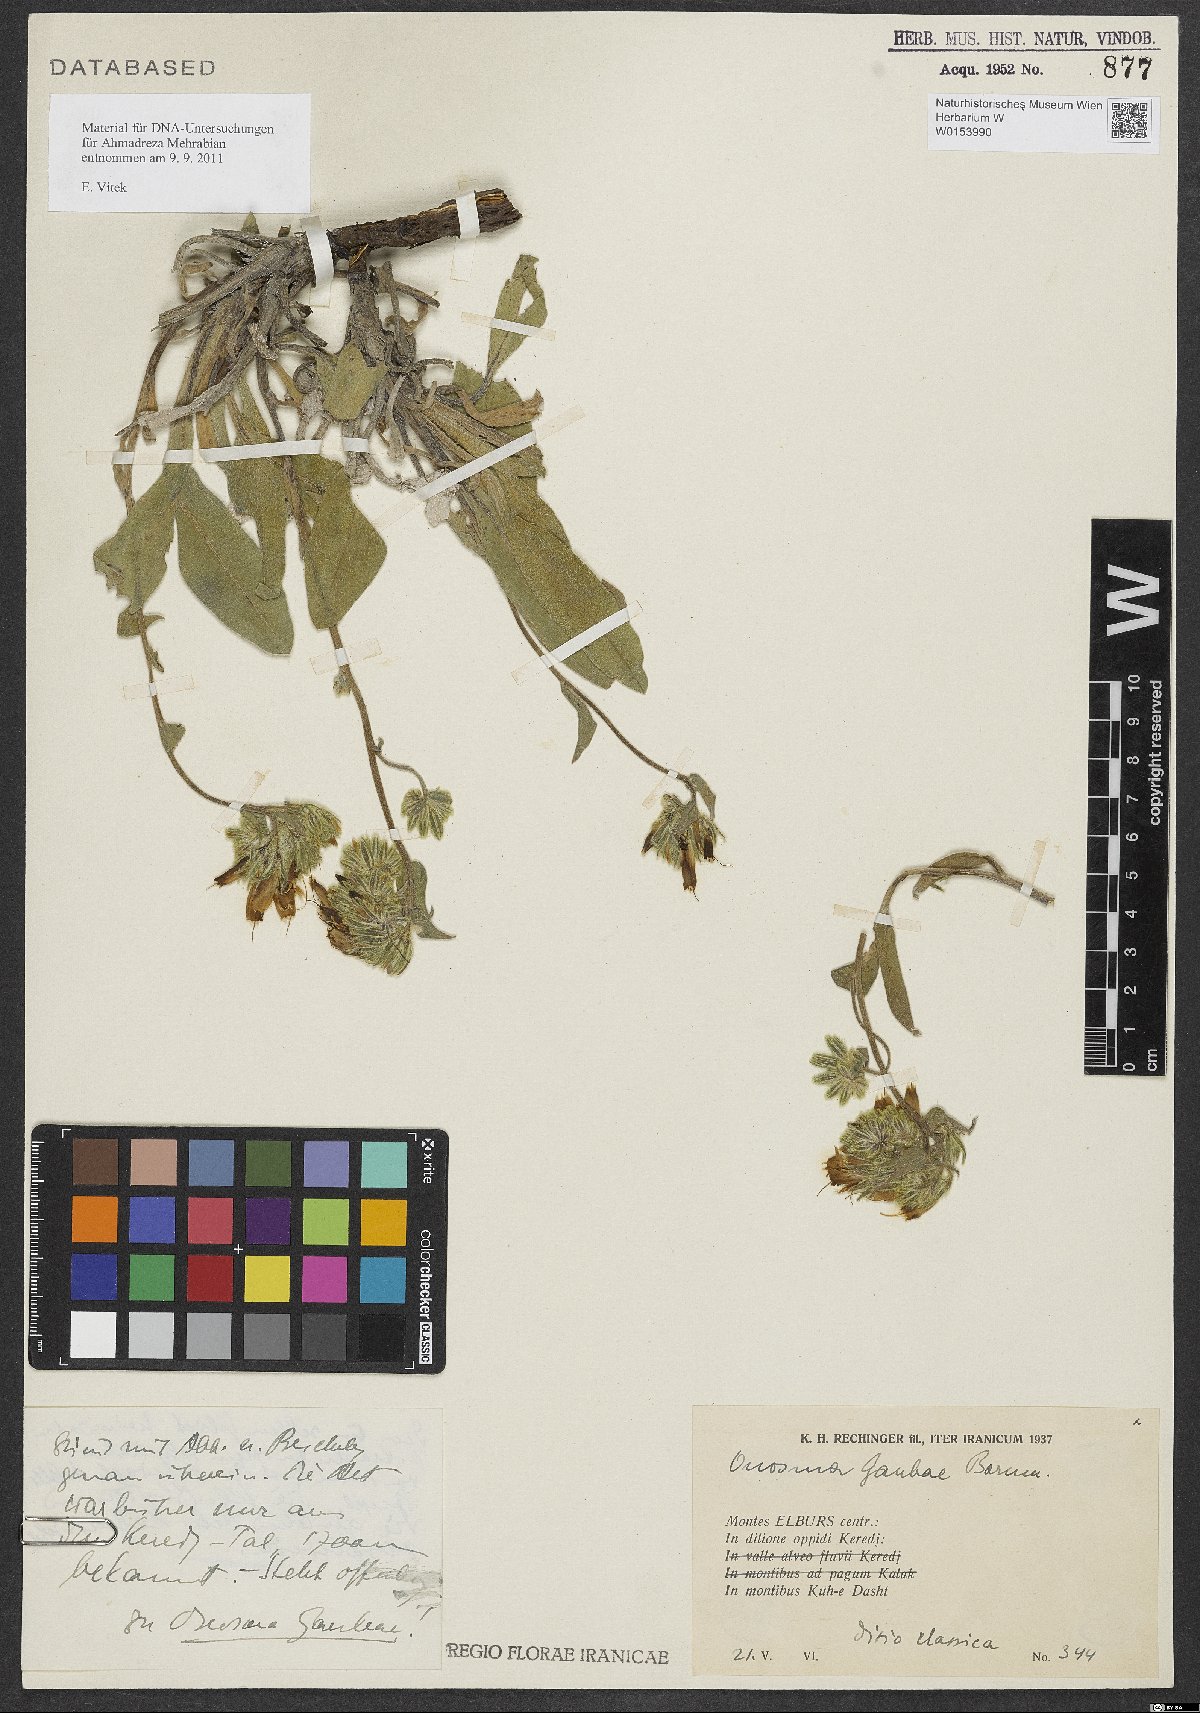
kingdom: Plantae
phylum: Tracheophyta
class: Magnoliopsida
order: Boraginales
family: Boraginaceae
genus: Onosma
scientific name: Onosma gaubae
